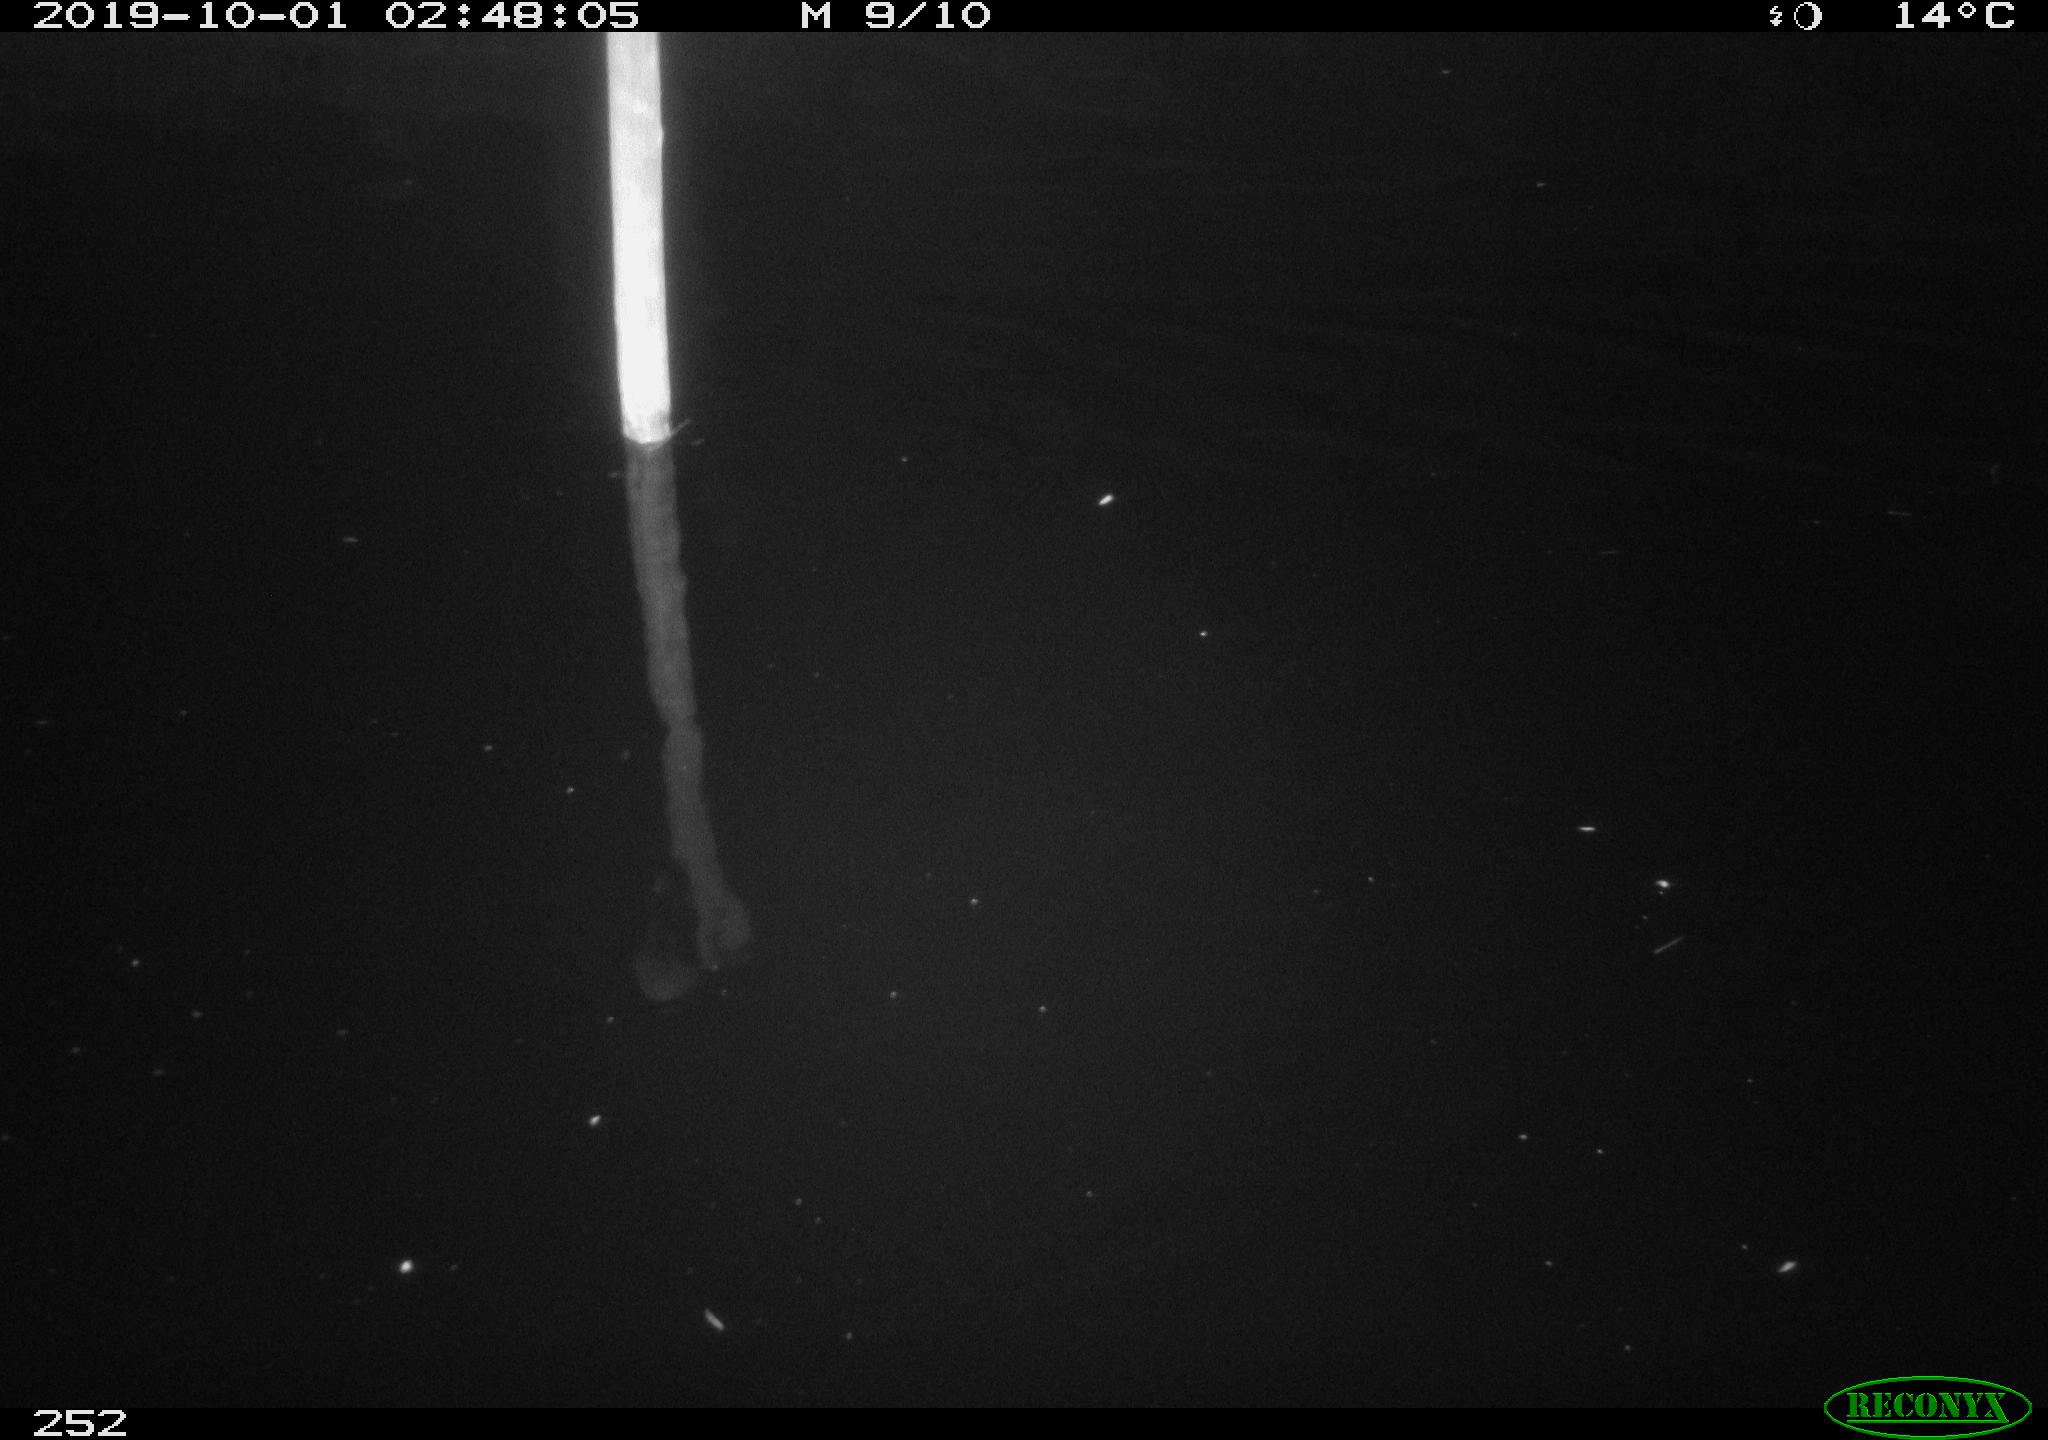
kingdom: Animalia
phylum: Chordata
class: Aves
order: Anseriformes
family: Anatidae
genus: Anas
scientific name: Anas platyrhynchos
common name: Mallard
